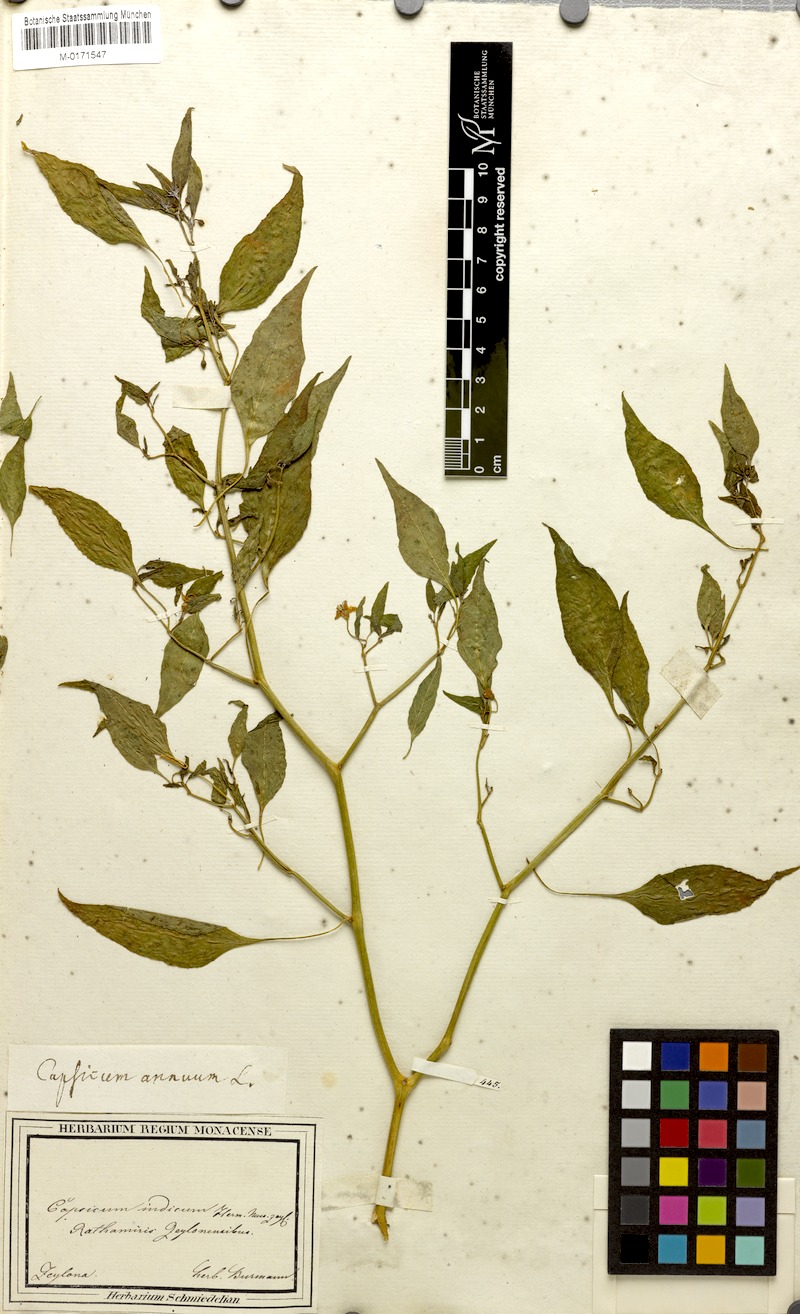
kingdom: Plantae
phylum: Tracheophyta
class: Magnoliopsida
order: Solanales
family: Solanaceae
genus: Capsicum
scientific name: Capsicum annuum
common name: Sweet pepper
